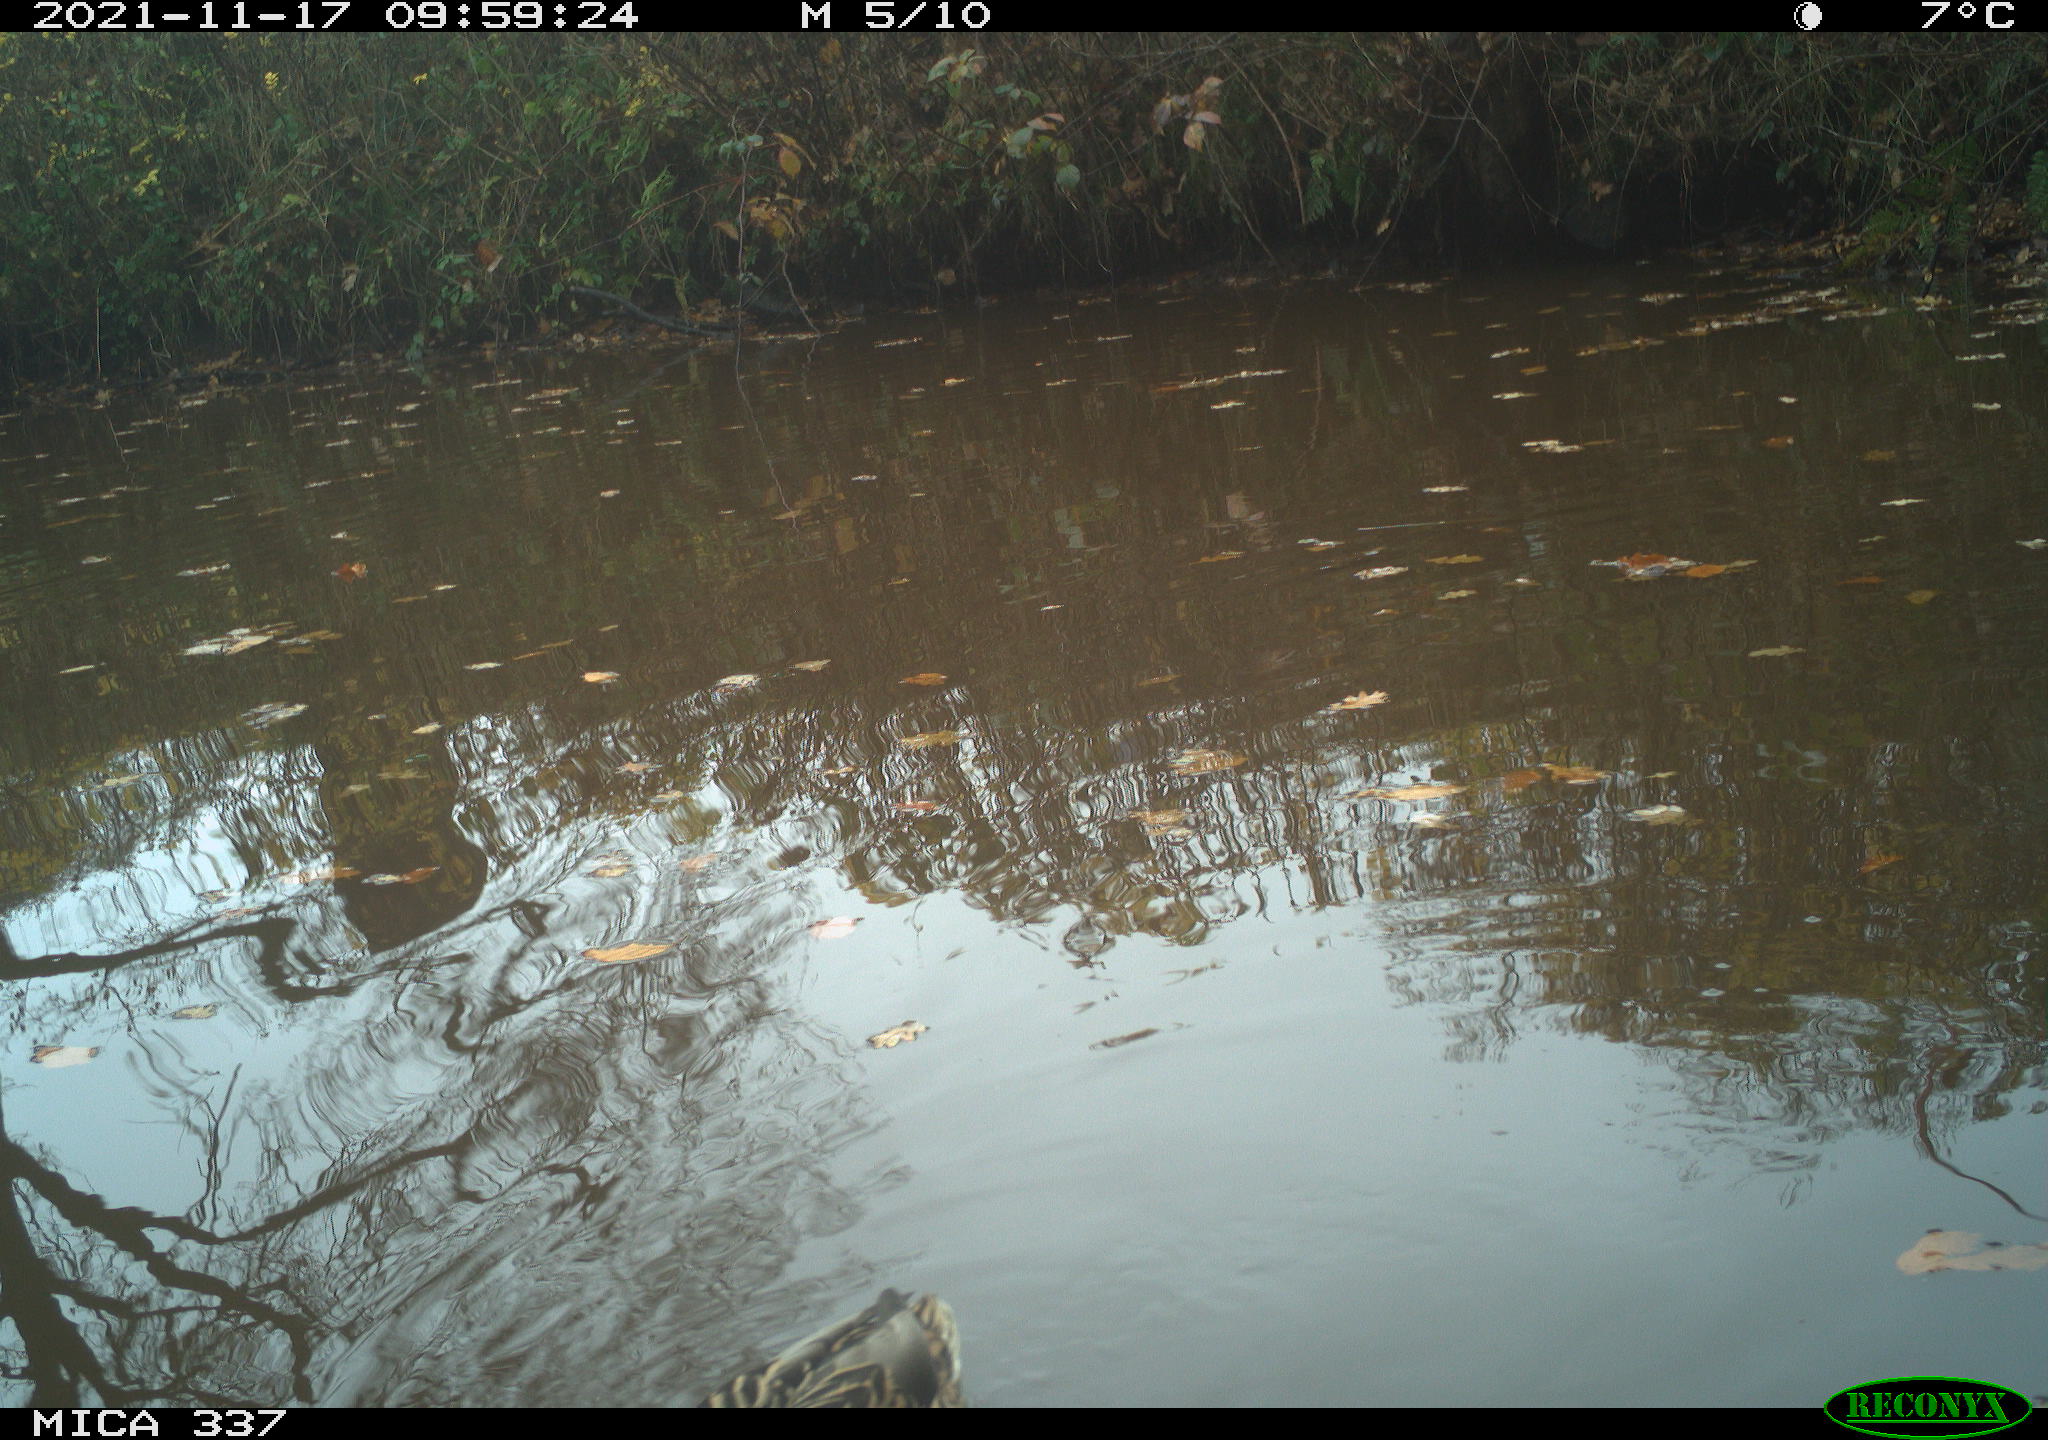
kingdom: Animalia
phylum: Chordata
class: Aves
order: Anseriformes
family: Anatidae
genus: Anas
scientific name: Anas platyrhynchos
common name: Mallard
